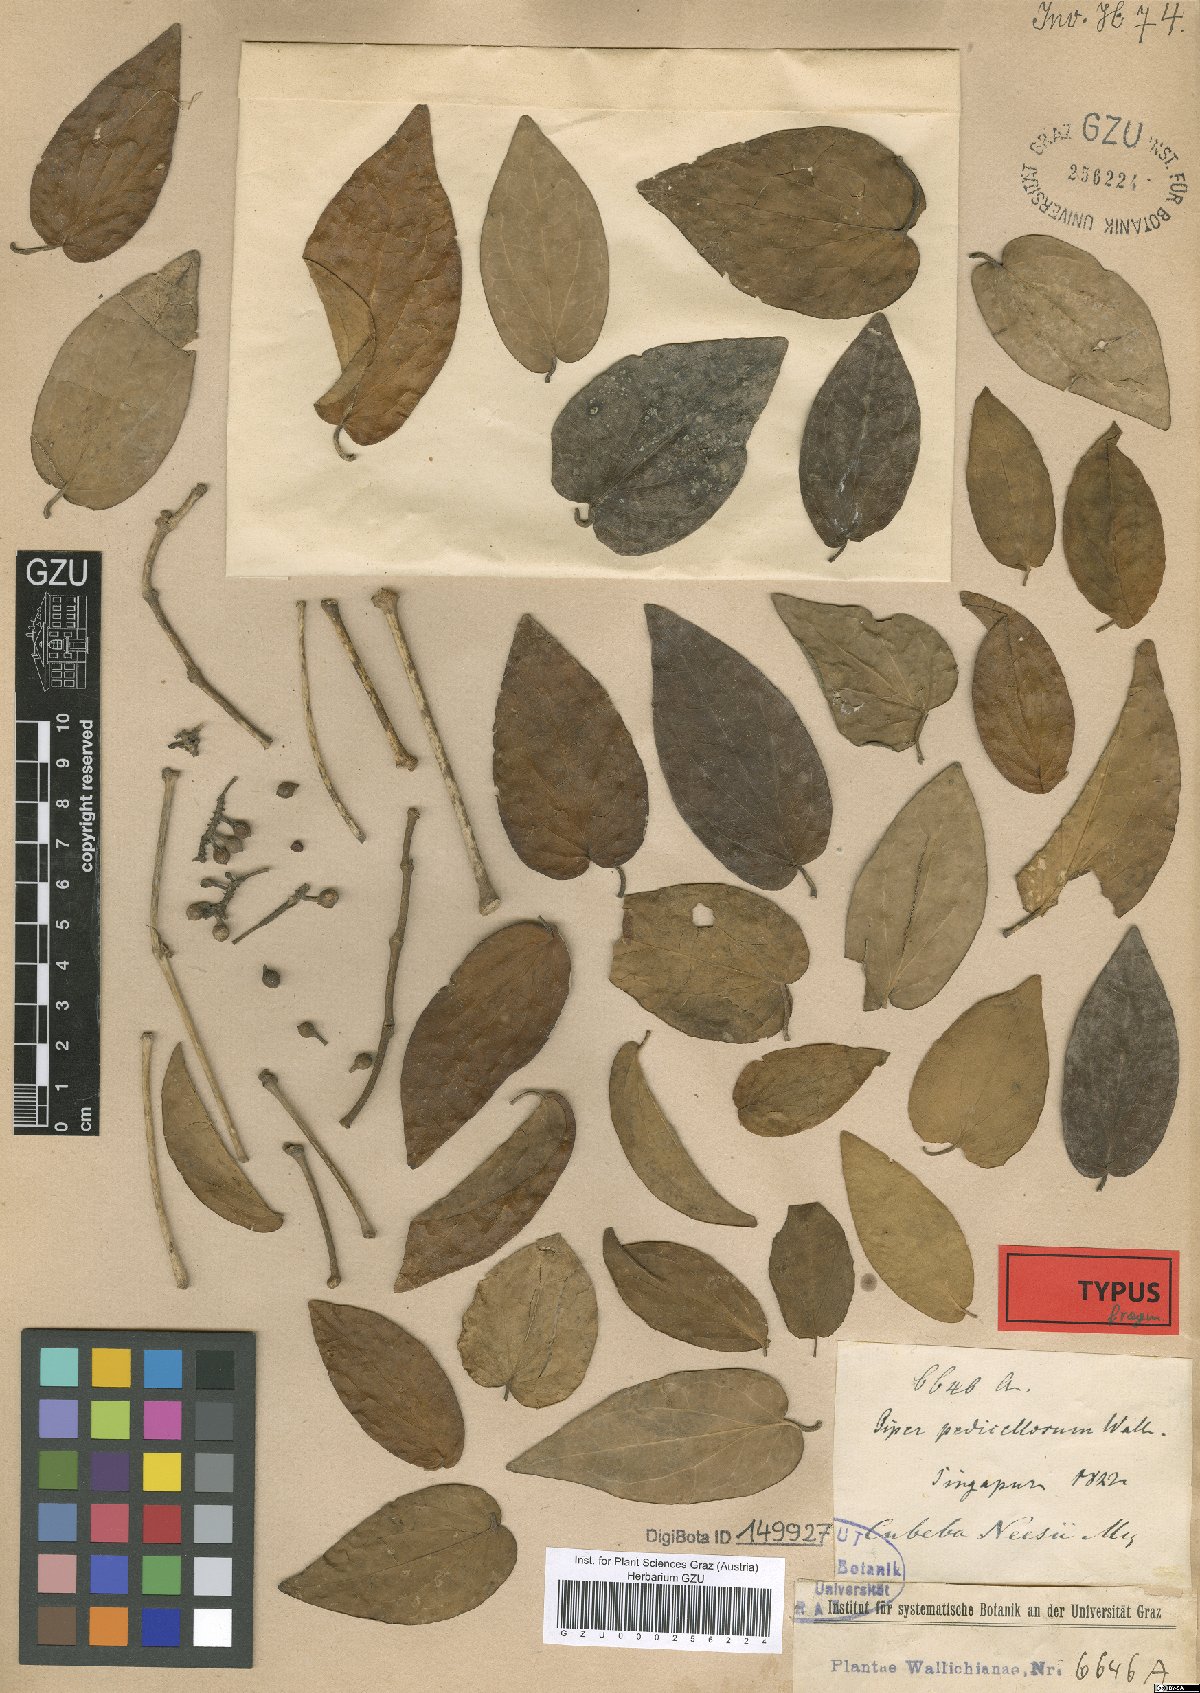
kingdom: Plantae
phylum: Tracheophyta
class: Magnoliopsida
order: Piperales
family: Piperaceae
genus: Piper
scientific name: Piper crassipes
